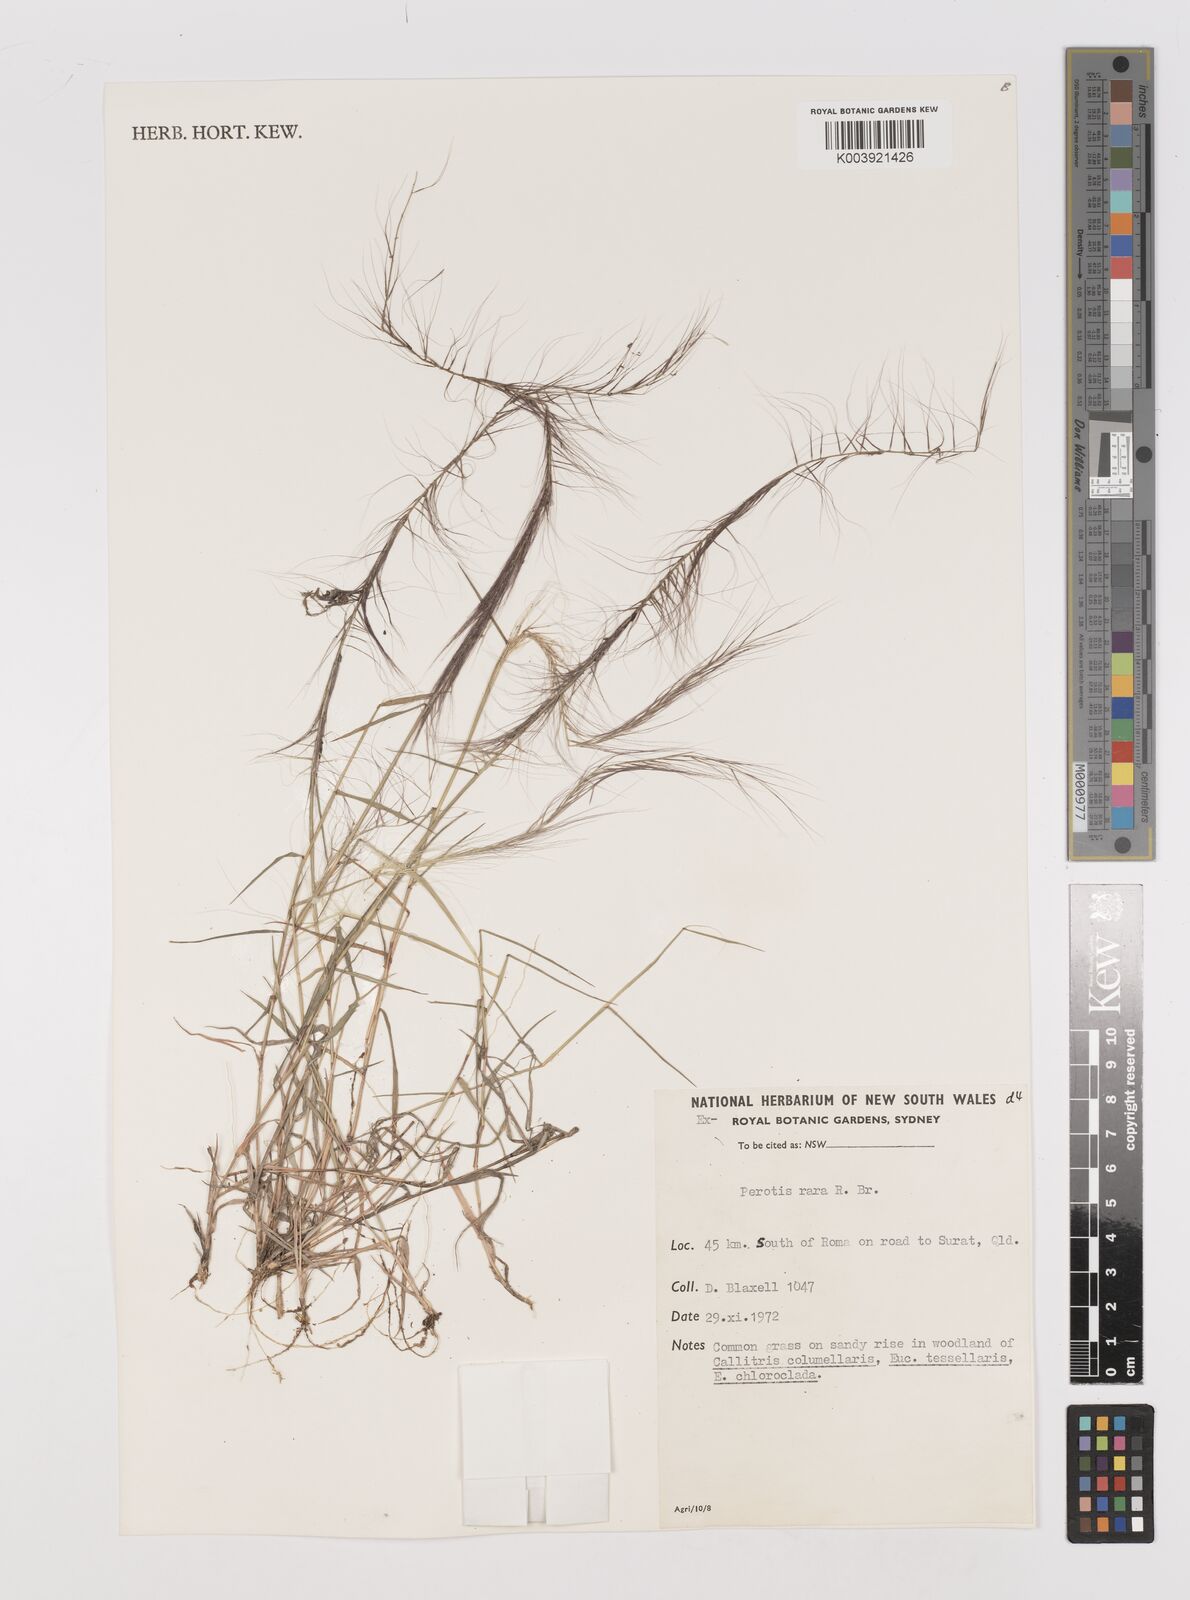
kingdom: Plantae
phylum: Tracheophyta
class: Liliopsida
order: Poales
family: Poaceae
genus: Perotis
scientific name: Perotis rara
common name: Comet grass
